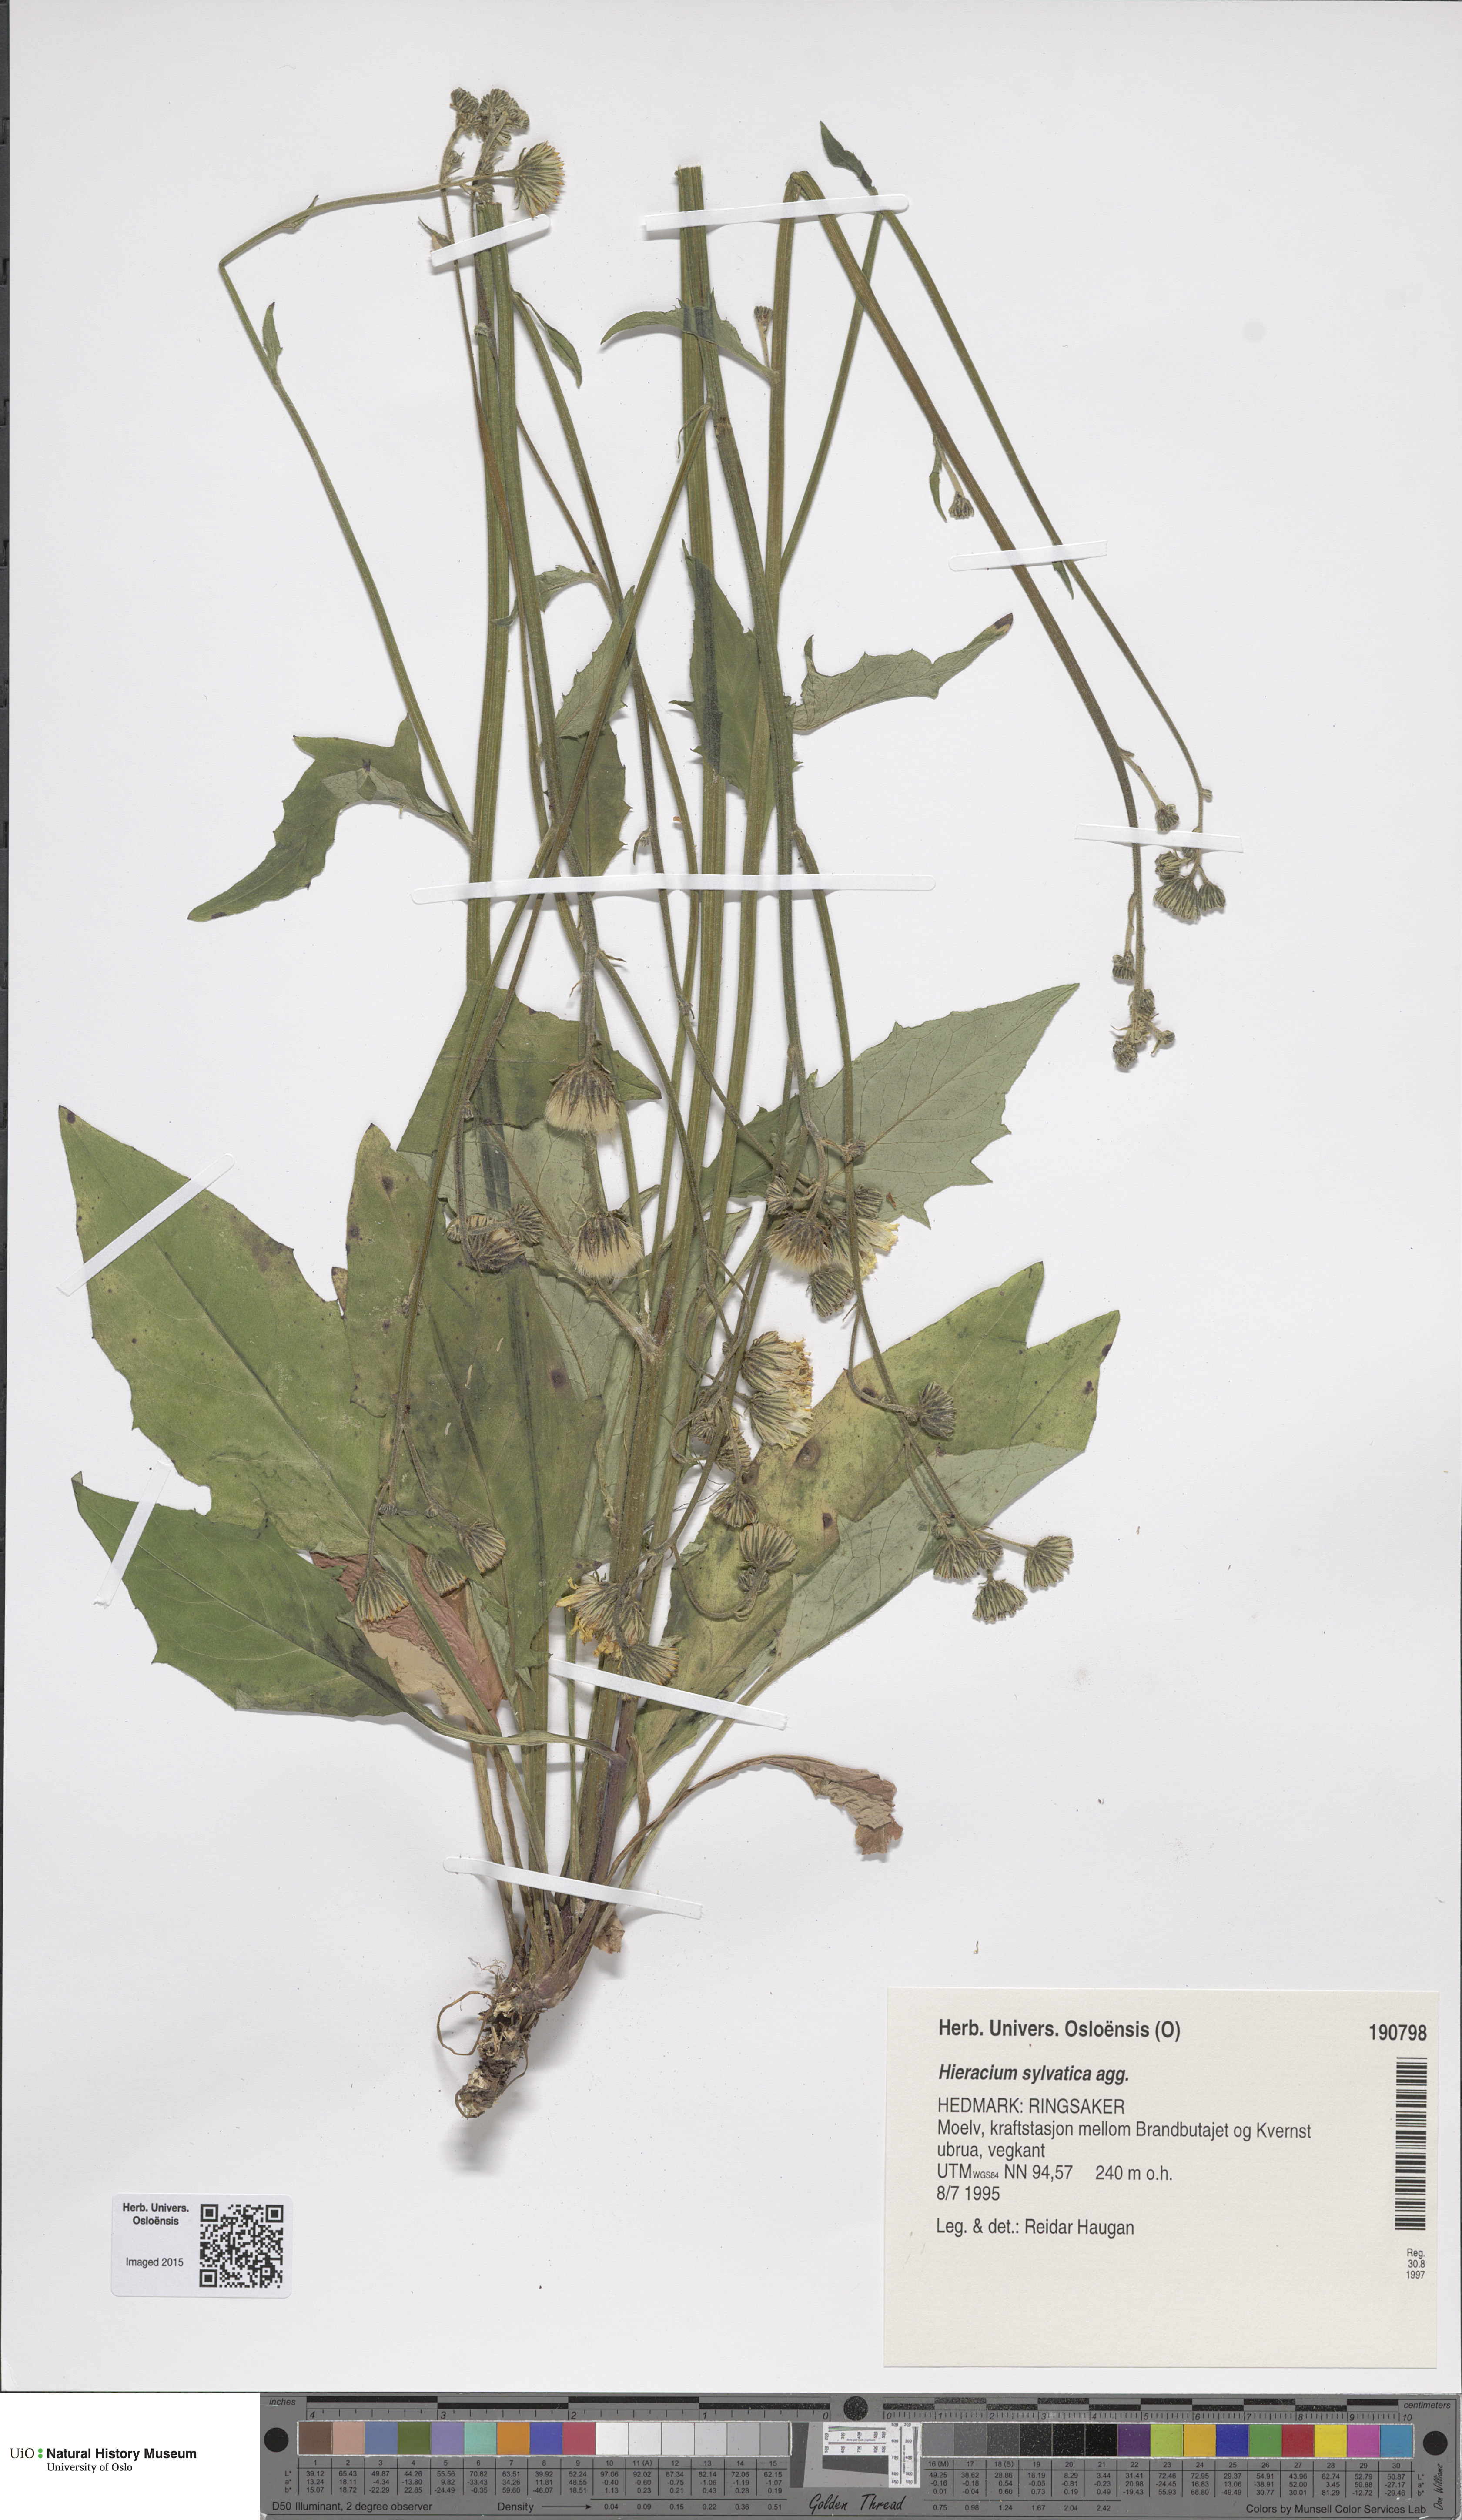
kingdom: Plantae
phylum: Tracheophyta
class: Magnoliopsida
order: Asterales
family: Asteraceae
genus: Hieracium
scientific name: Hieracium
